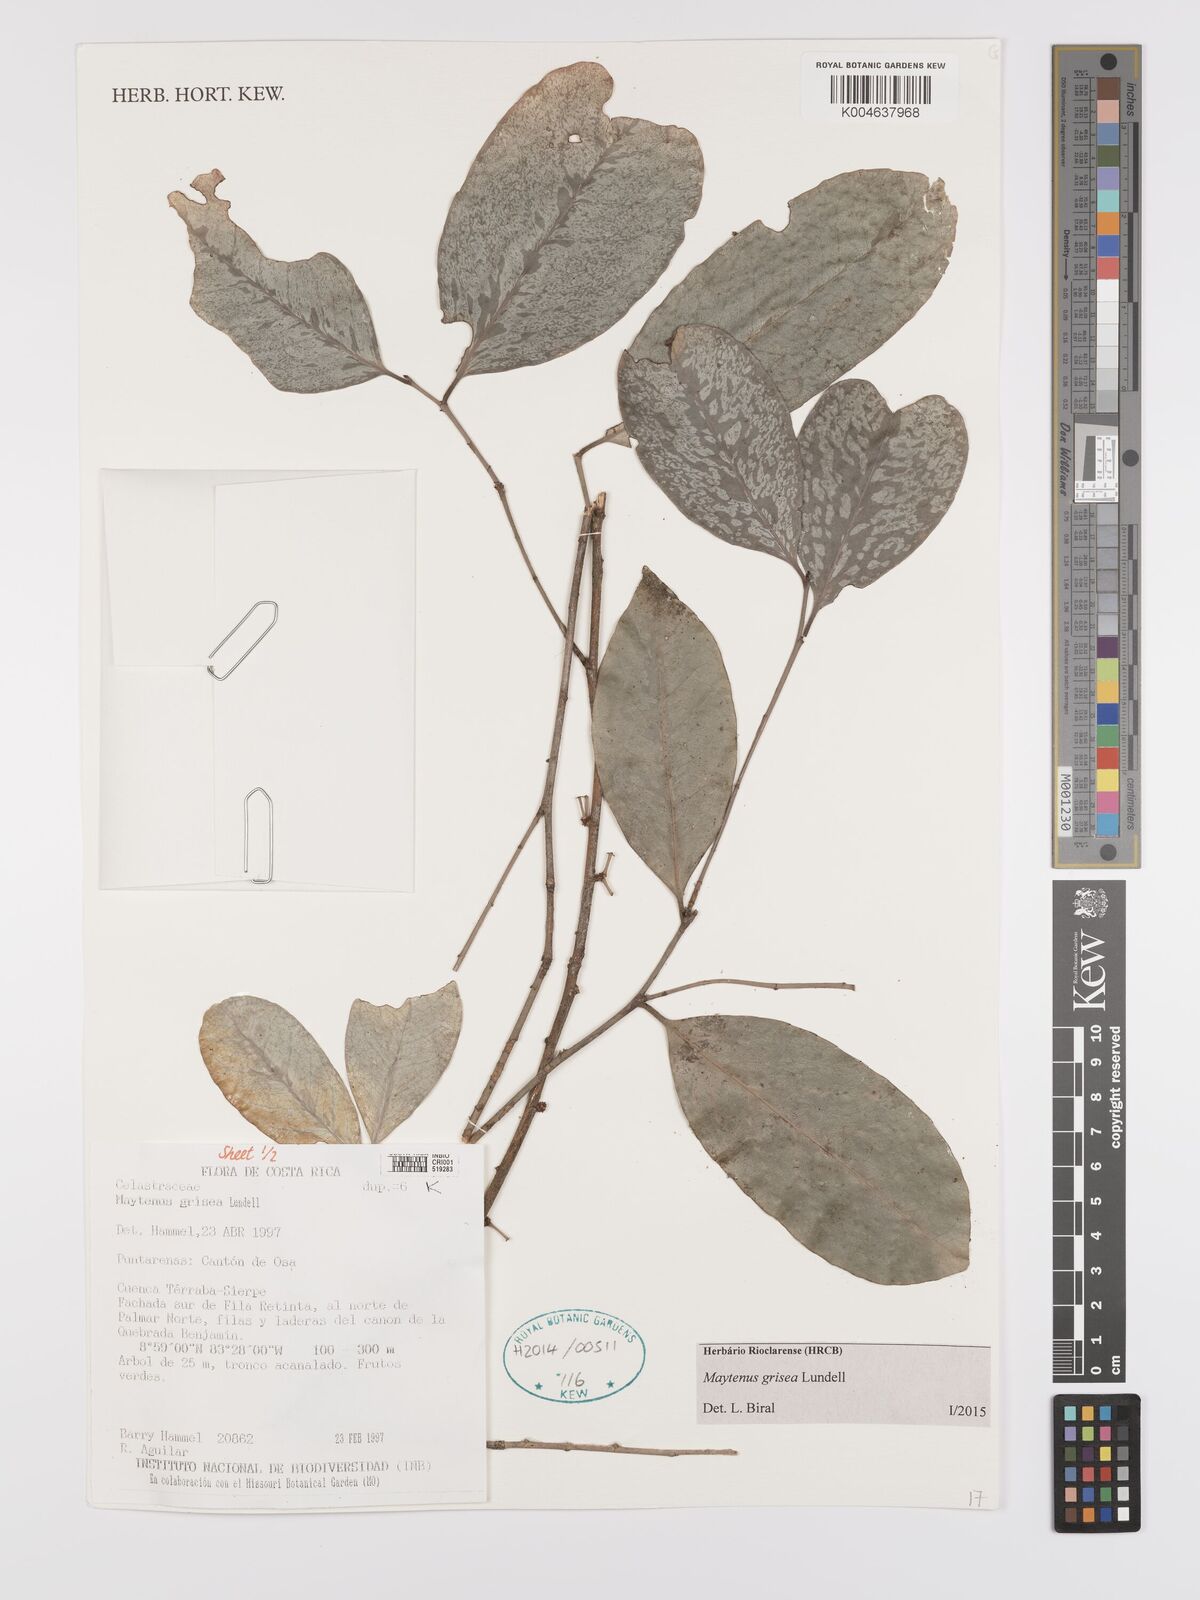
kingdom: Plantae
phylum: Tracheophyta
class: Magnoliopsida
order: Celastrales
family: Celastraceae
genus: Maytenus
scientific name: Maytenus grisea
